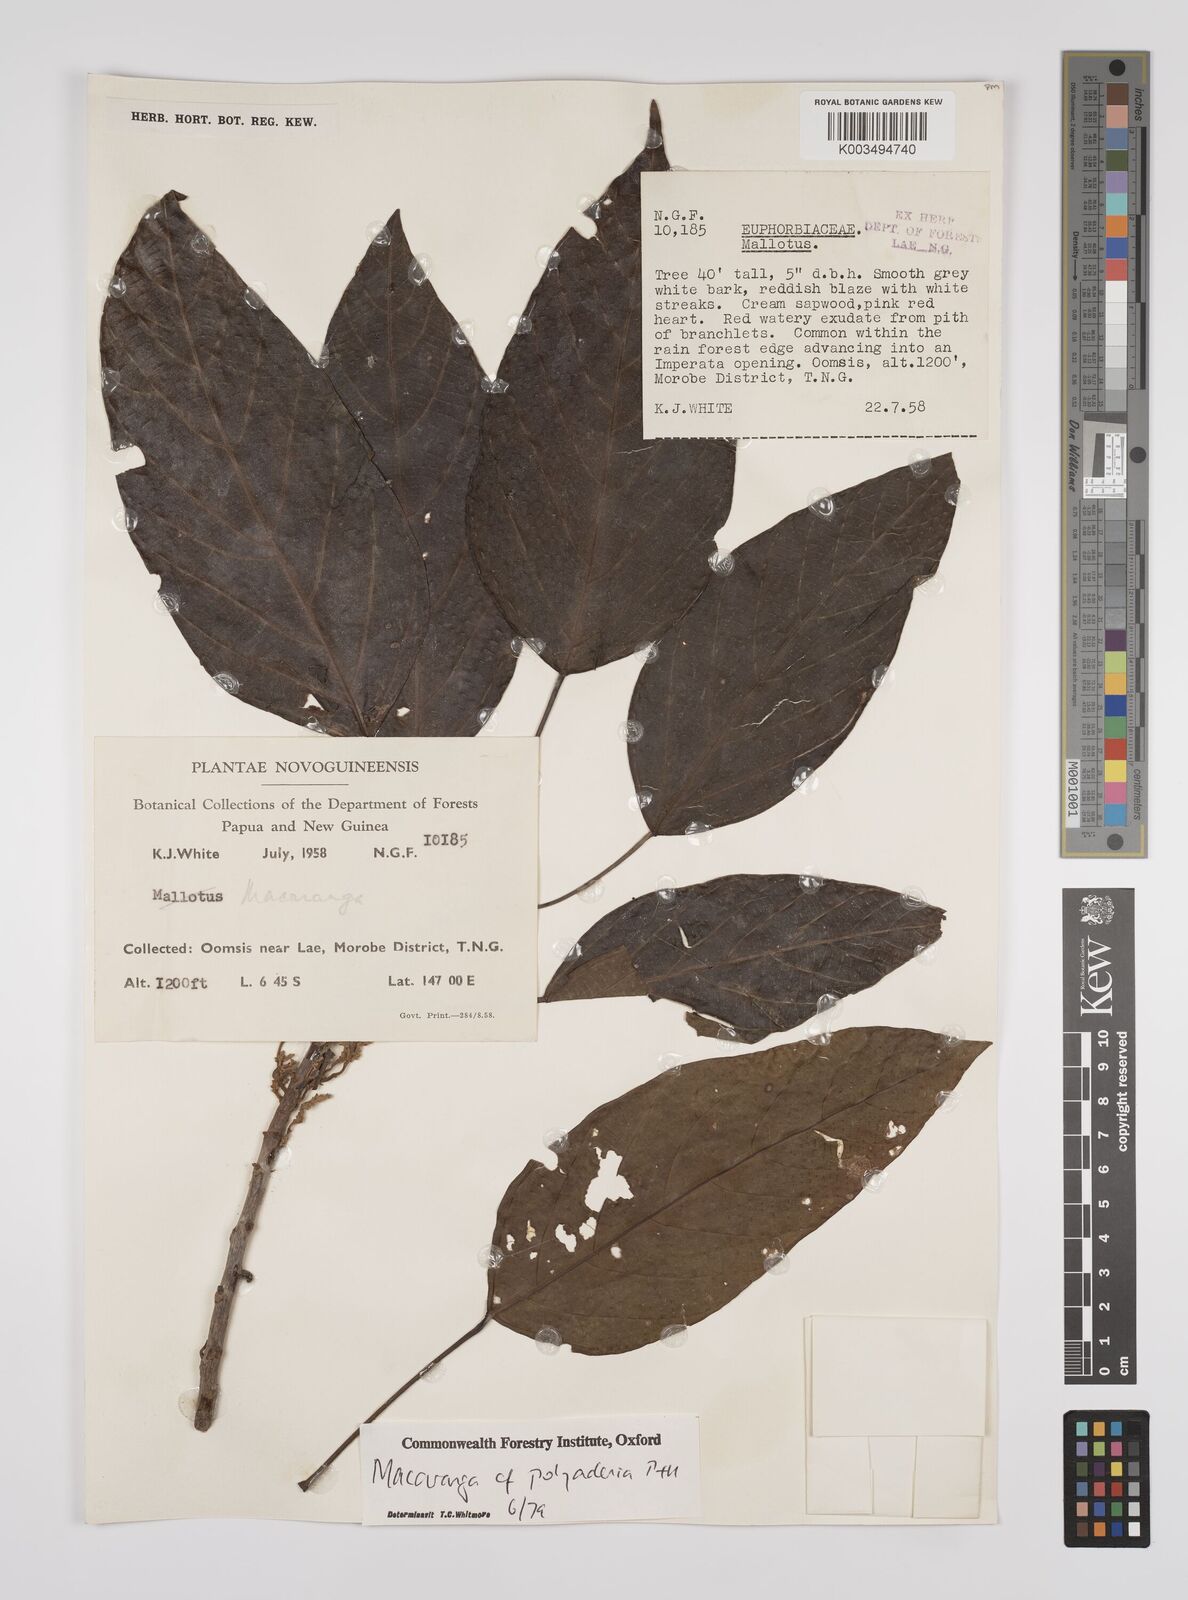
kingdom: Plantae
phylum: Tracheophyta
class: Magnoliopsida
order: Malpighiales
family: Euphorbiaceae
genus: Macaranga
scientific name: Macaranga polyadenia
